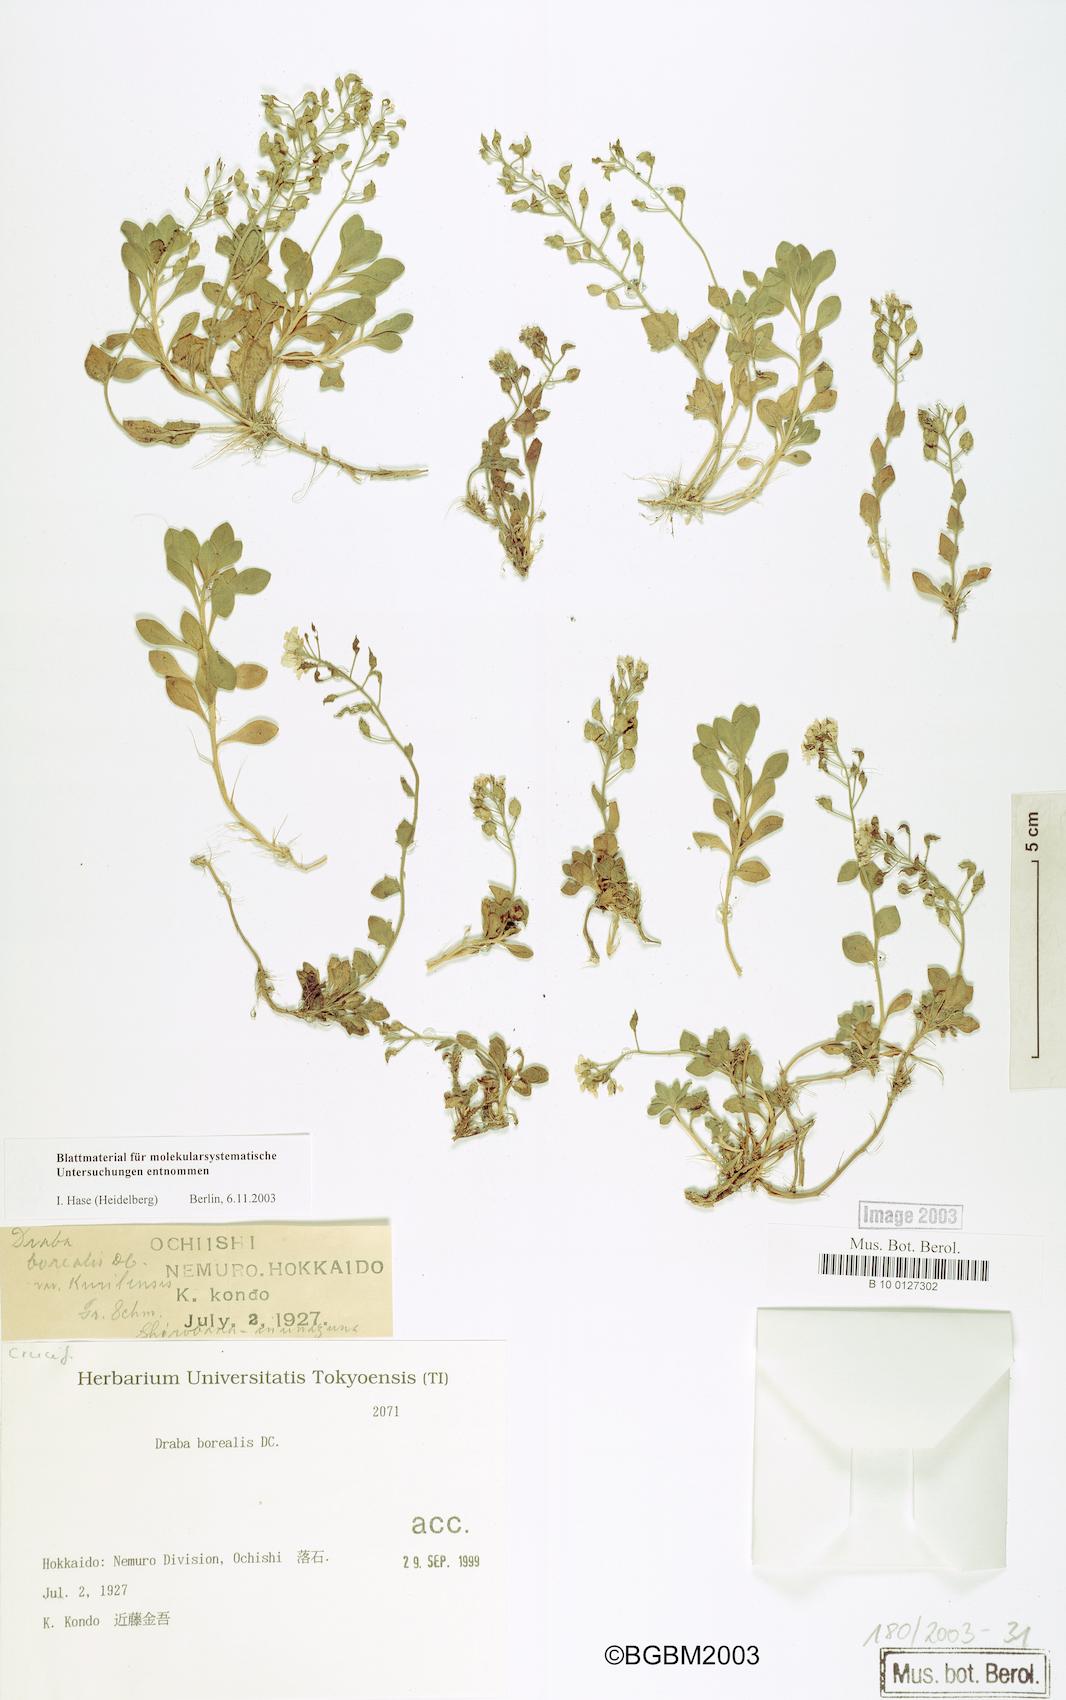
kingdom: Plantae
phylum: Tracheophyta
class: Magnoliopsida
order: Brassicales
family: Brassicaceae
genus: Draba
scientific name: Draba borealis
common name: Boreal draba
